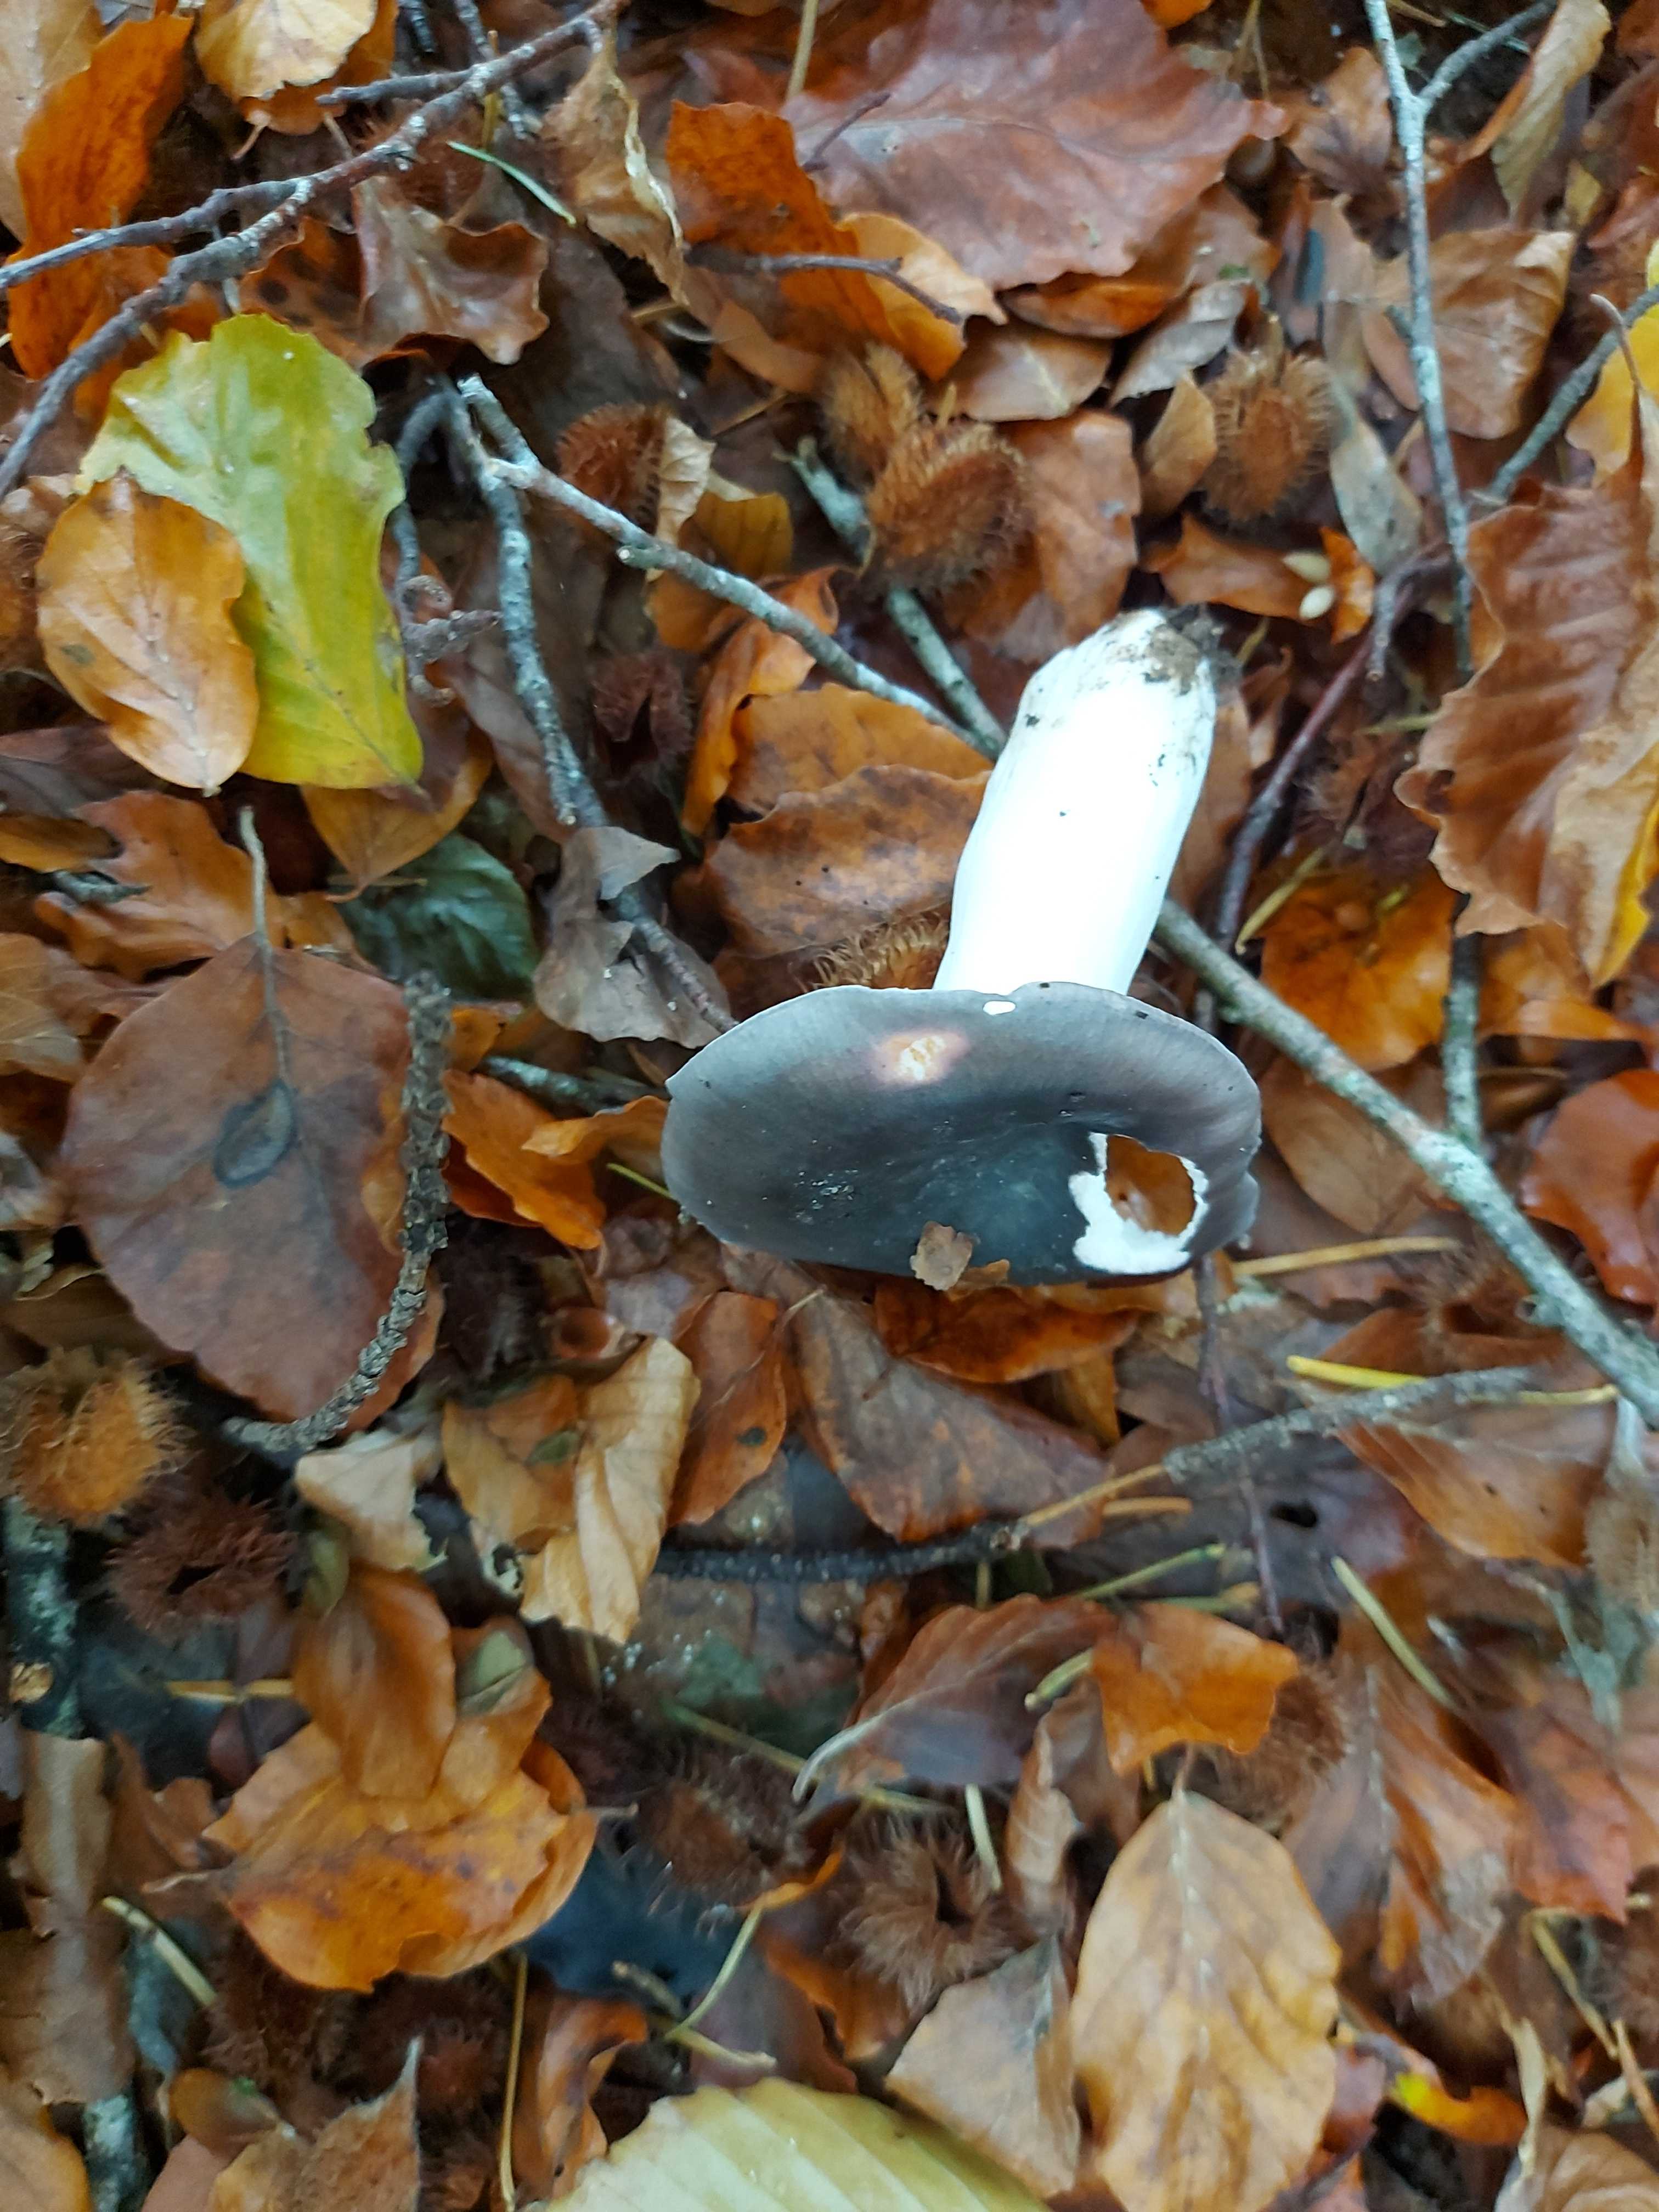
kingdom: Fungi
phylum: Basidiomycota
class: Agaricomycetes
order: Russulales
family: Russulaceae
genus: Russula
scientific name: Russula
